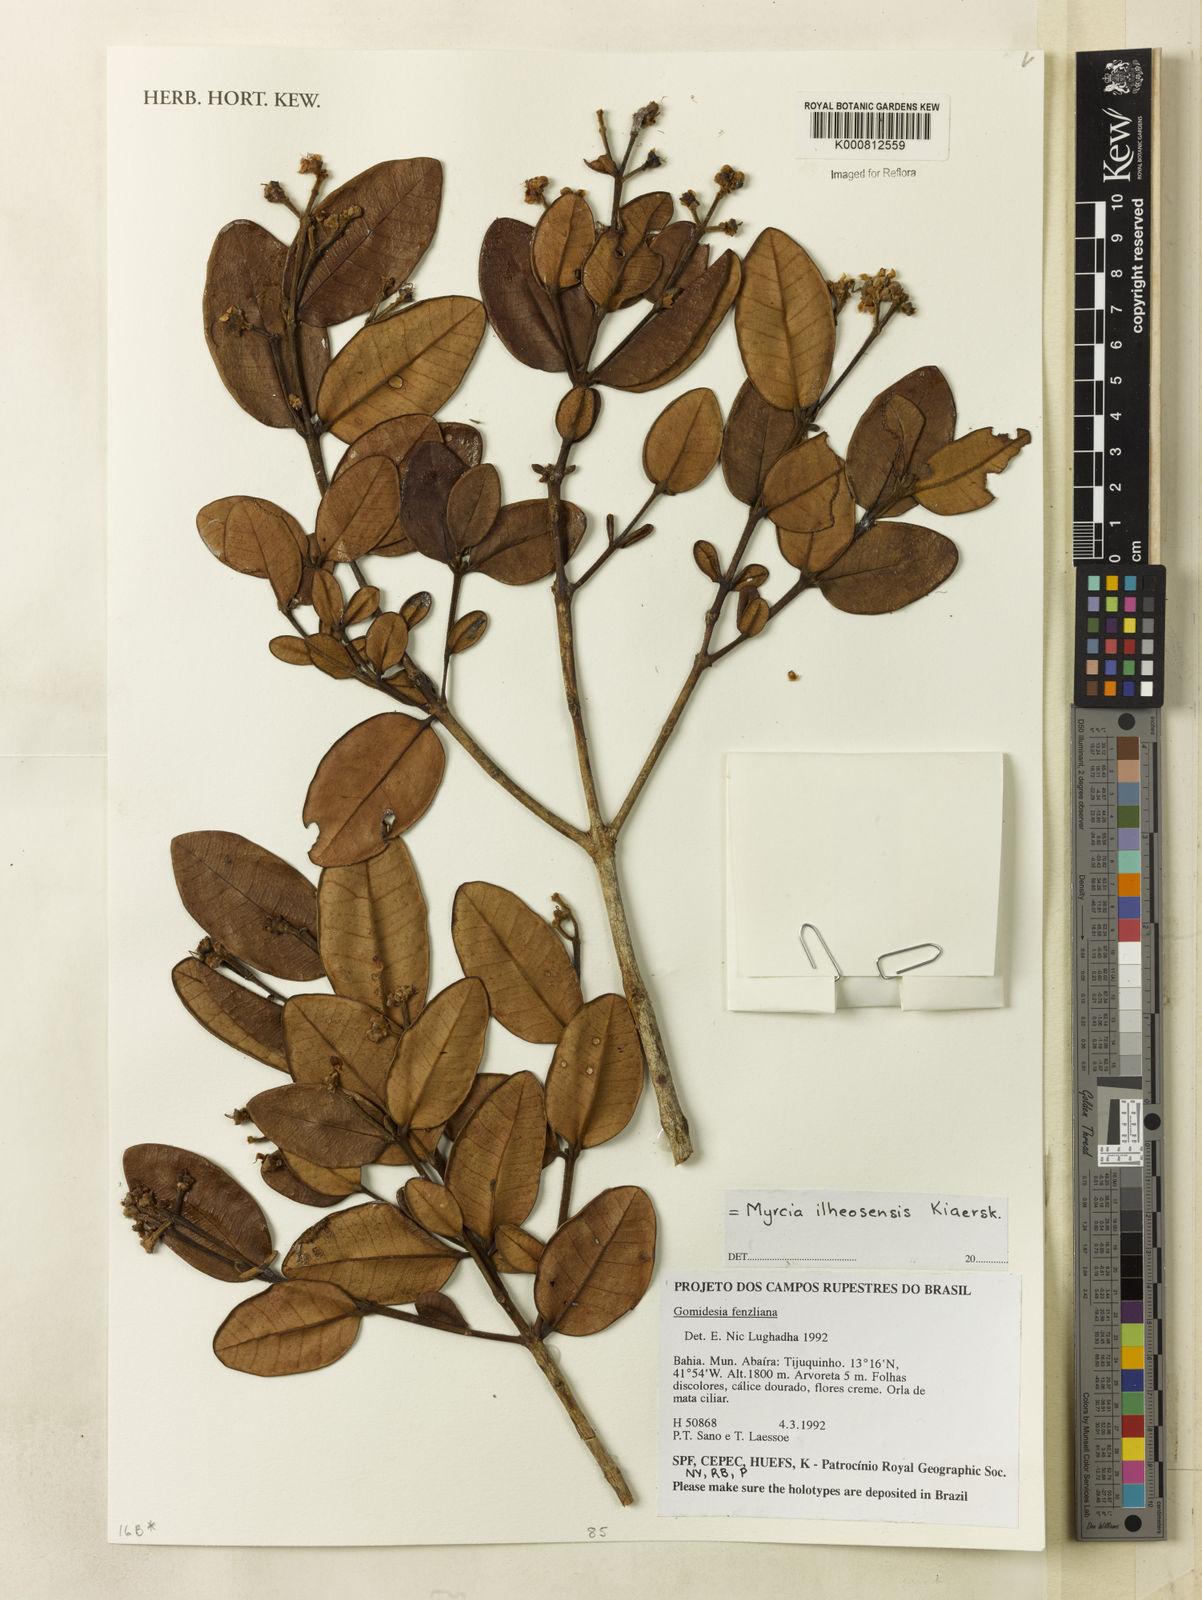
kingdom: Plantae
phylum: Tracheophyta
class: Magnoliopsida
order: Myrtales
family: Myrtaceae
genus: Myrcia
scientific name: Myrcia ilheosensis
